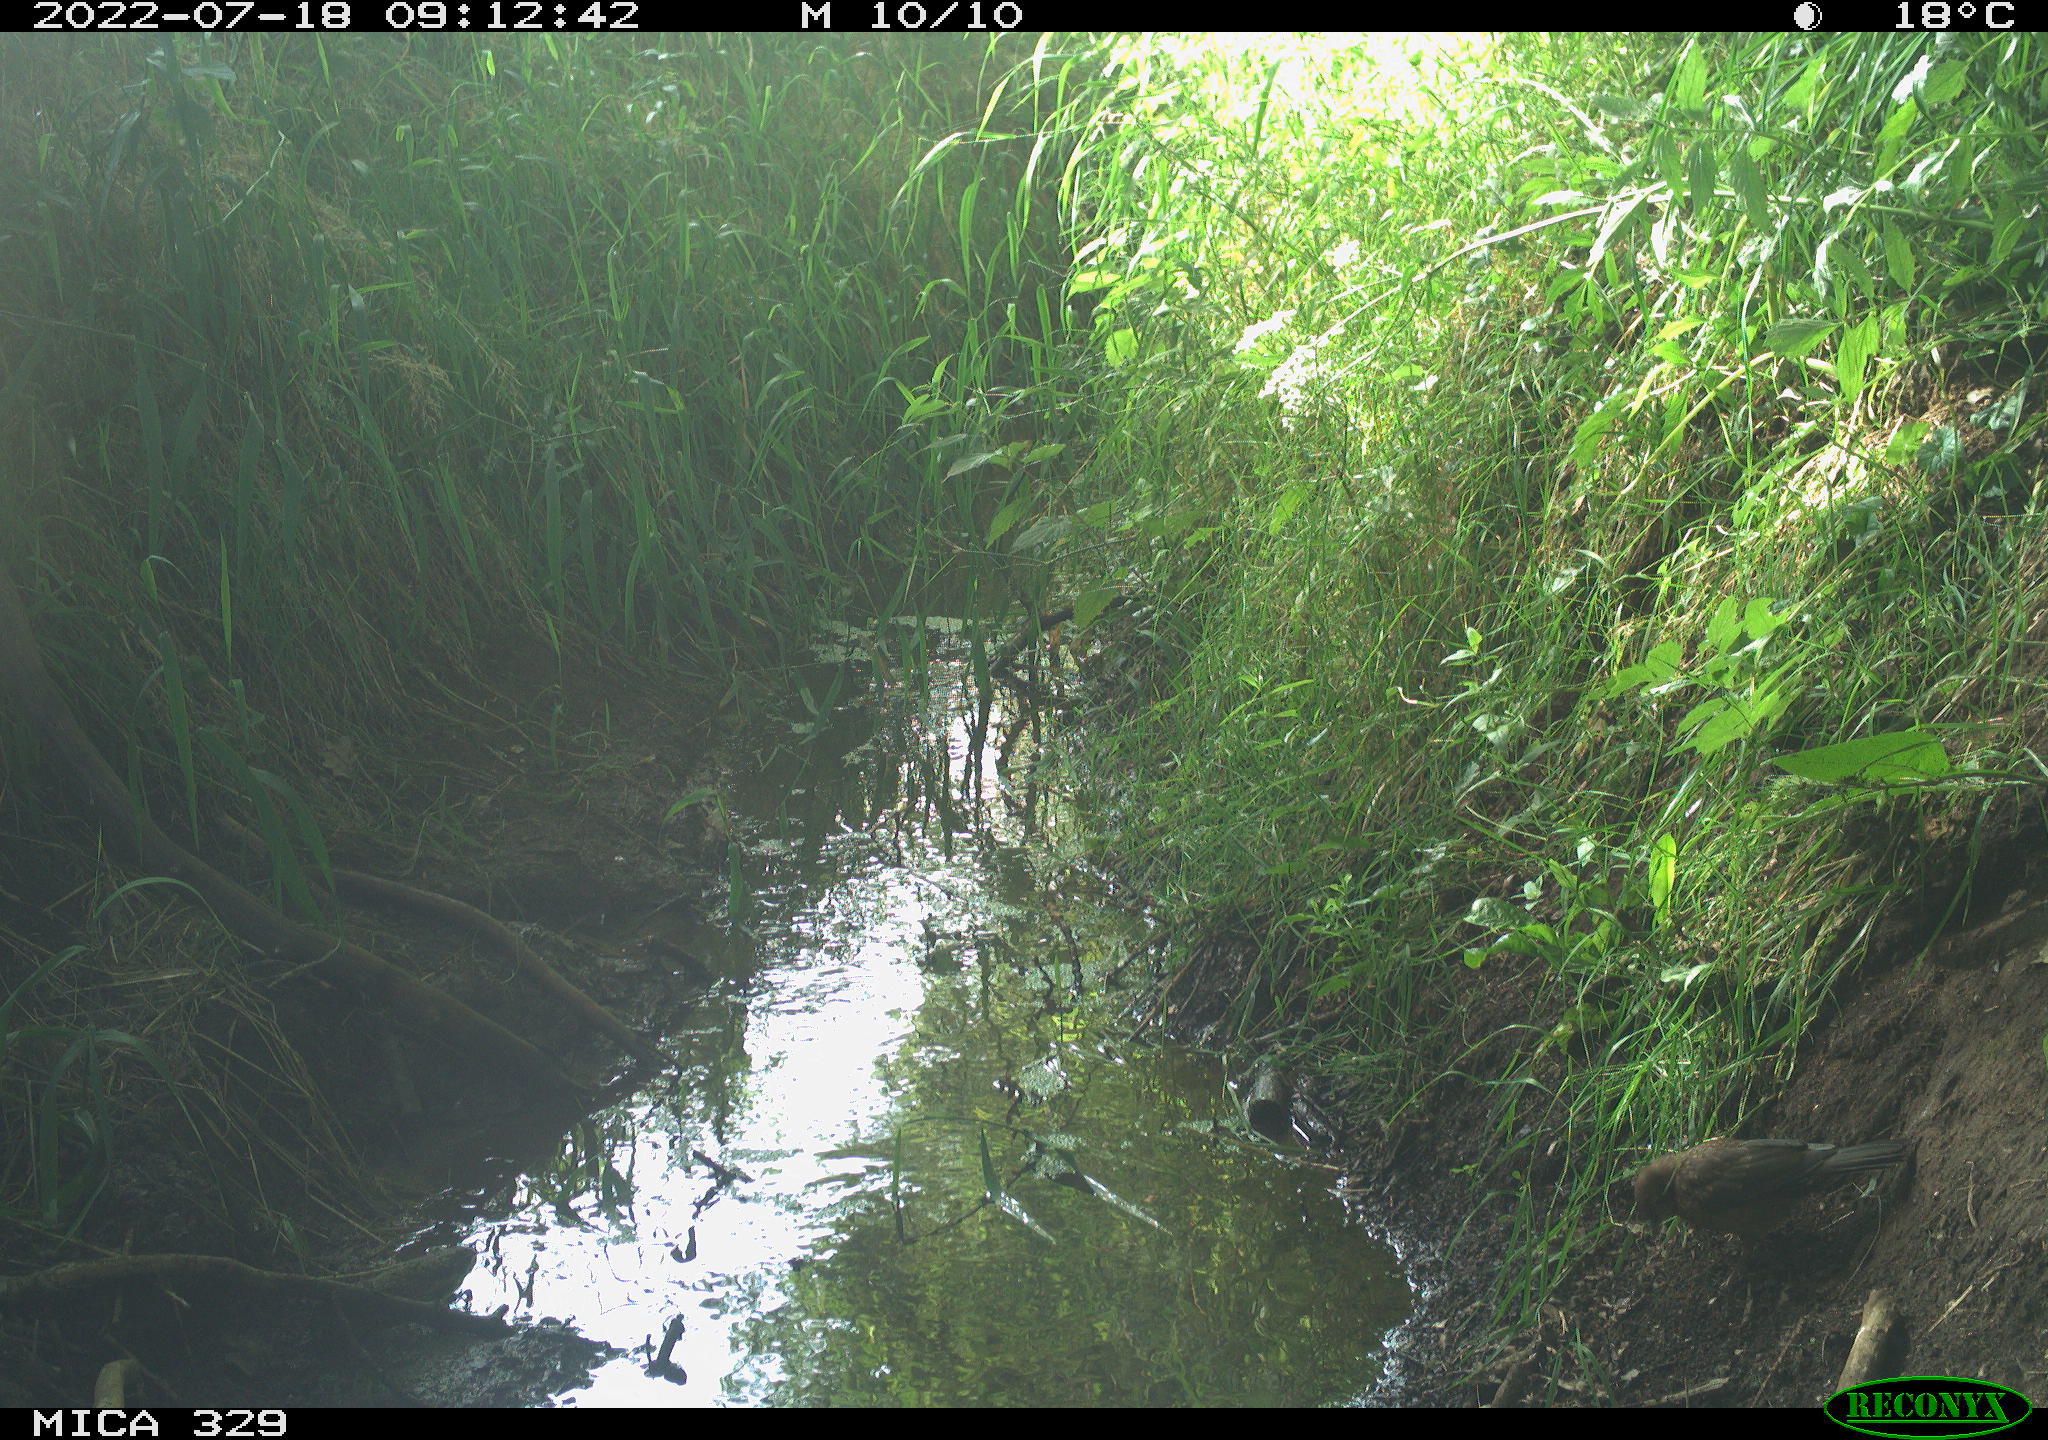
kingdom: Animalia
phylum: Chordata
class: Aves
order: Passeriformes
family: Turdidae
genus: Turdus
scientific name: Turdus merula
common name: Common blackbird
